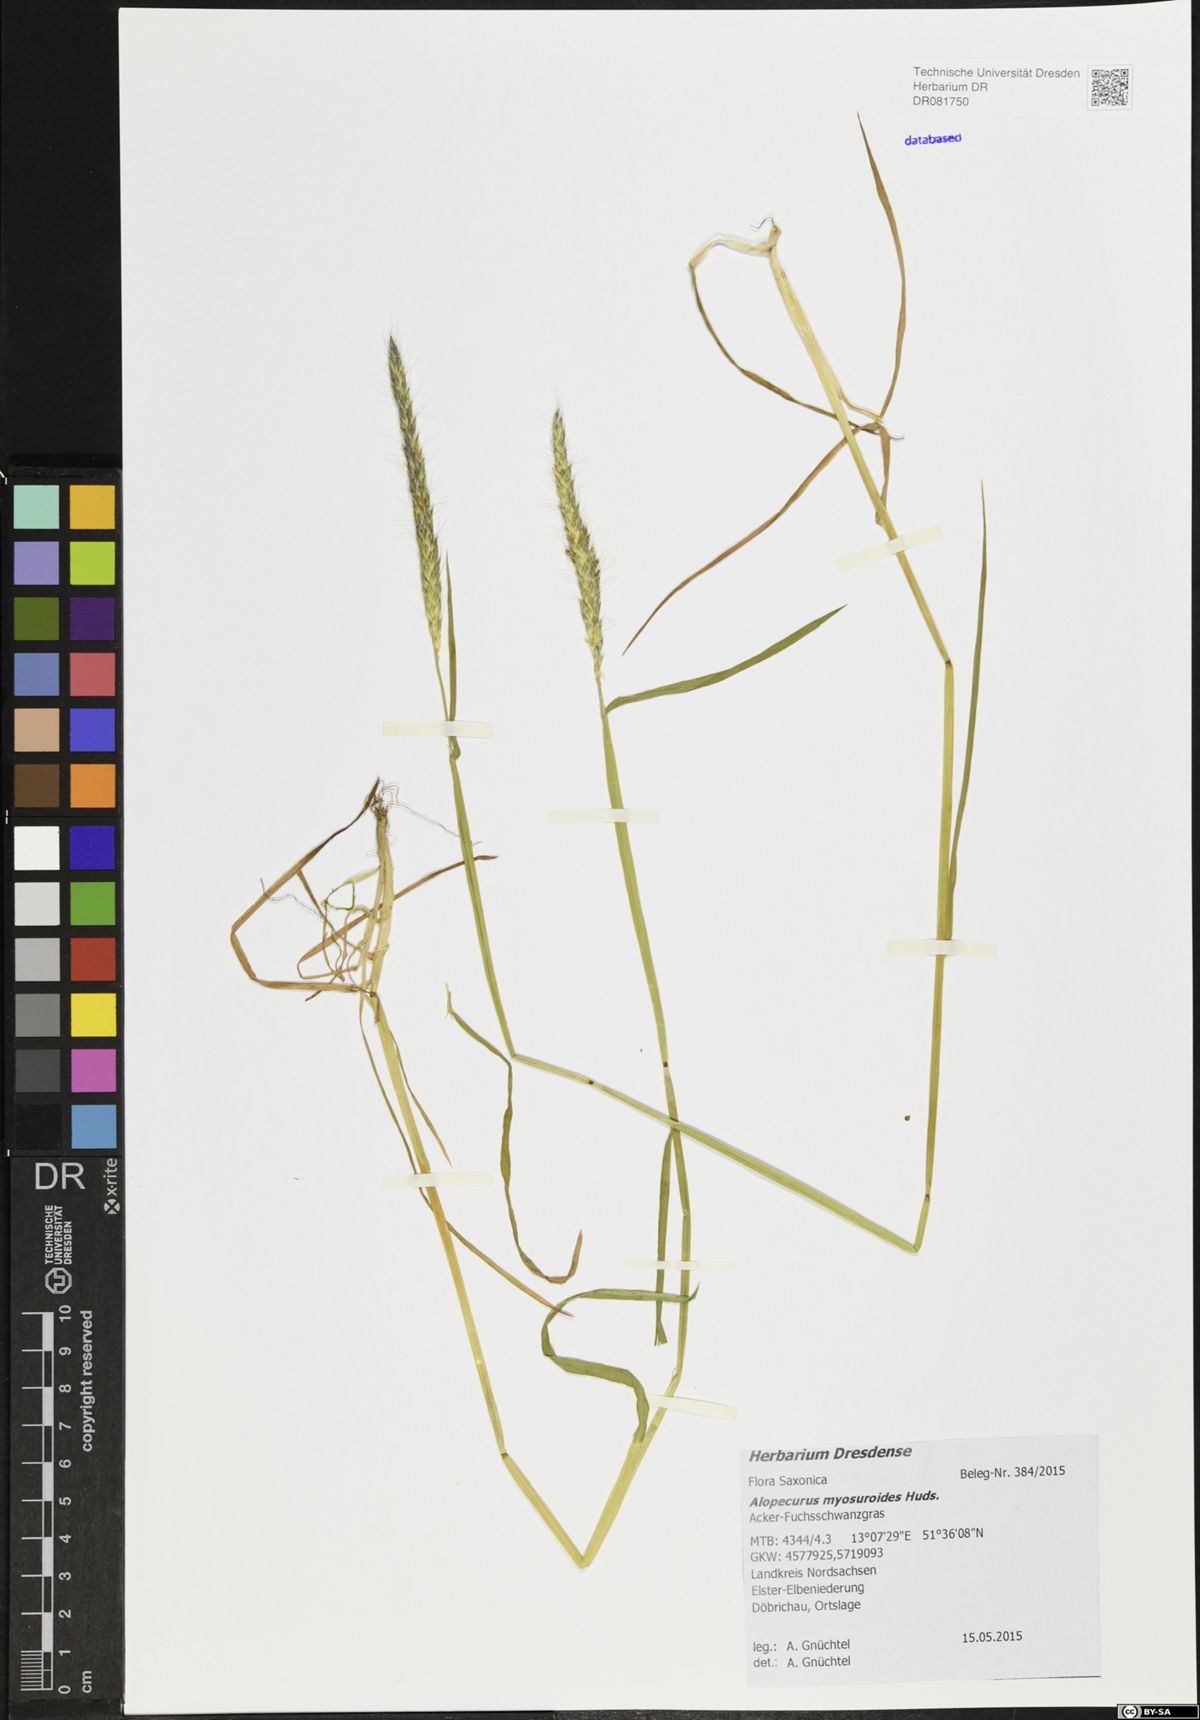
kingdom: Plantae
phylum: Tracheophyta
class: Liliopsida
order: Poales
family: Poaceae
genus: Alopecurus
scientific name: Alopecurus myosuroides
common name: Black-grass
